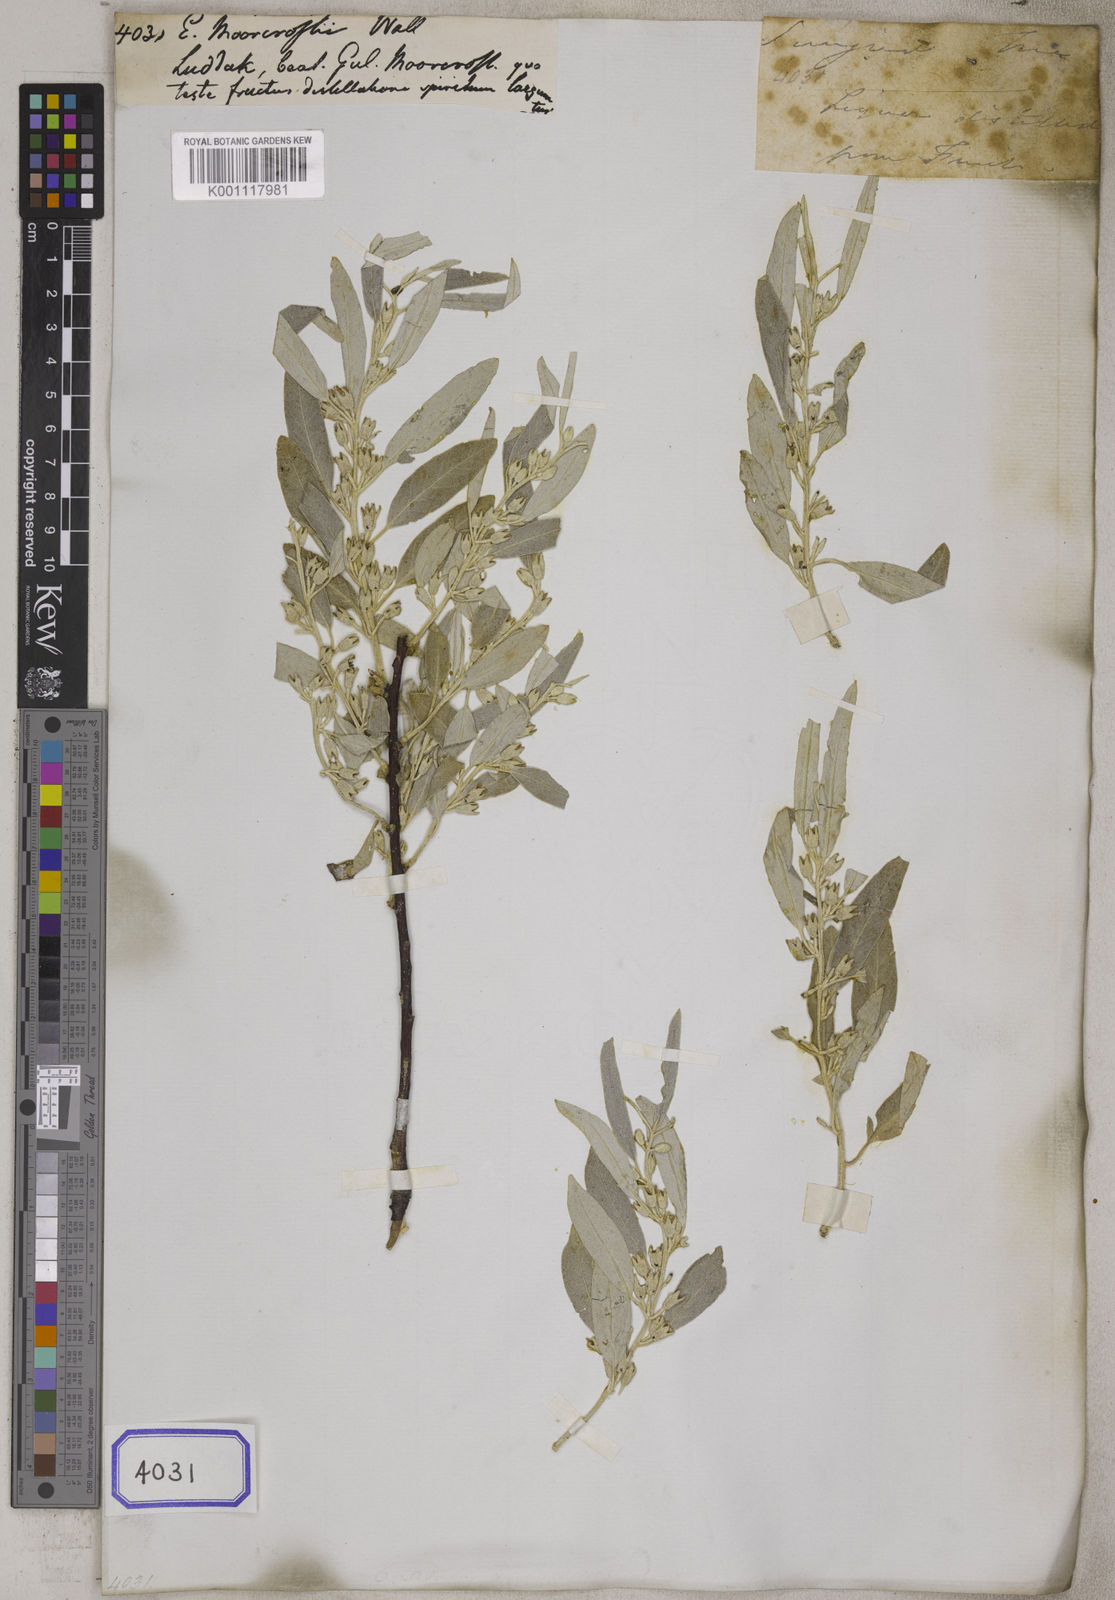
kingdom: Plantae
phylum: Tracheophyta
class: Magnoliopsida
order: Rosales
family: Elaeagnaceae
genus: Elaeagnus
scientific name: Elaeagnus
